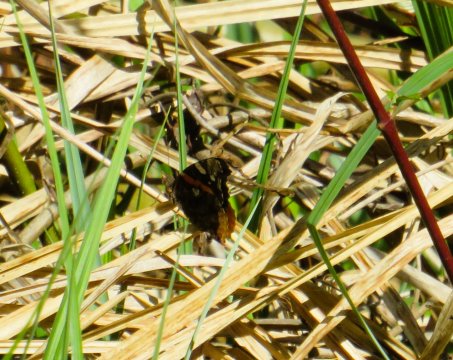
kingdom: Animalia
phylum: Arthropoda
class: Insecta
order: Lepidoptera
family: Nymphalidae
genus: Vanessa
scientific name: Vanessa atalanta
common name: Red Admiral
